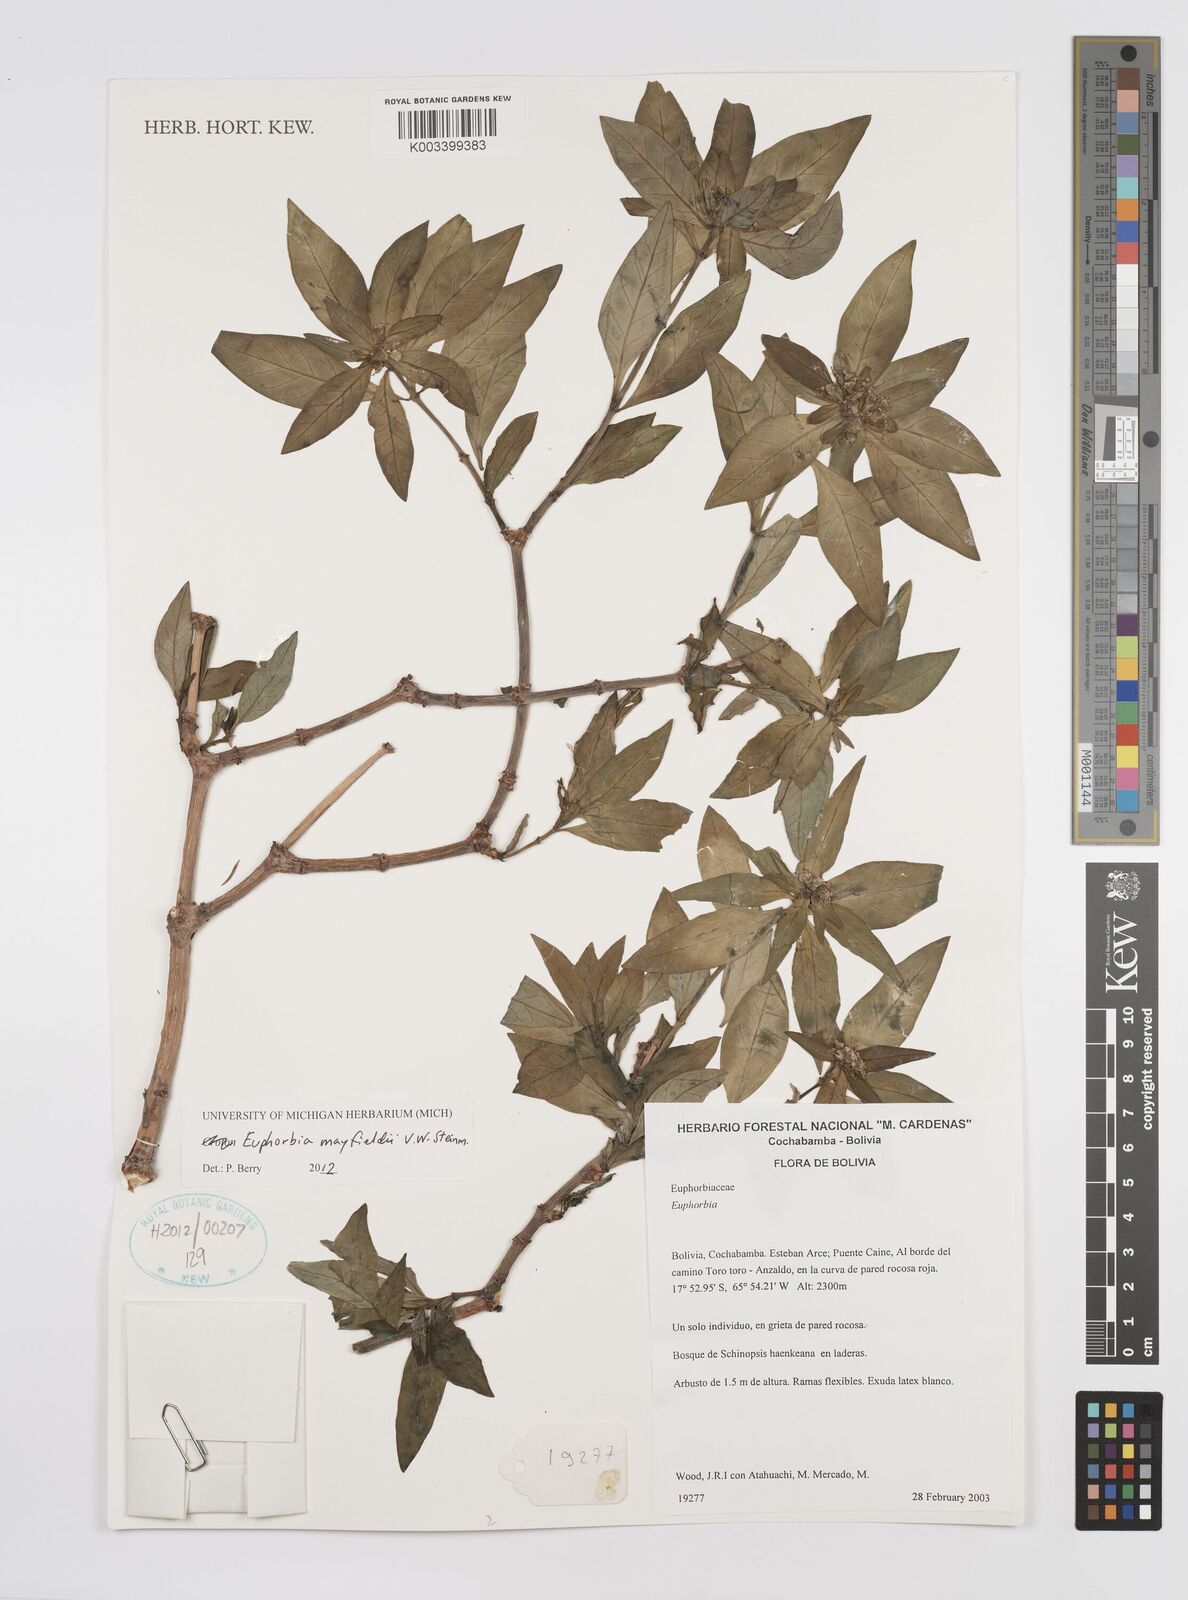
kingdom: Plantae
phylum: Tracheophyta
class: Magnoliopsida
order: Malpighiales
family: Euphorbiaceae
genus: Euphorbia
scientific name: Euphorbia mayfieldii
